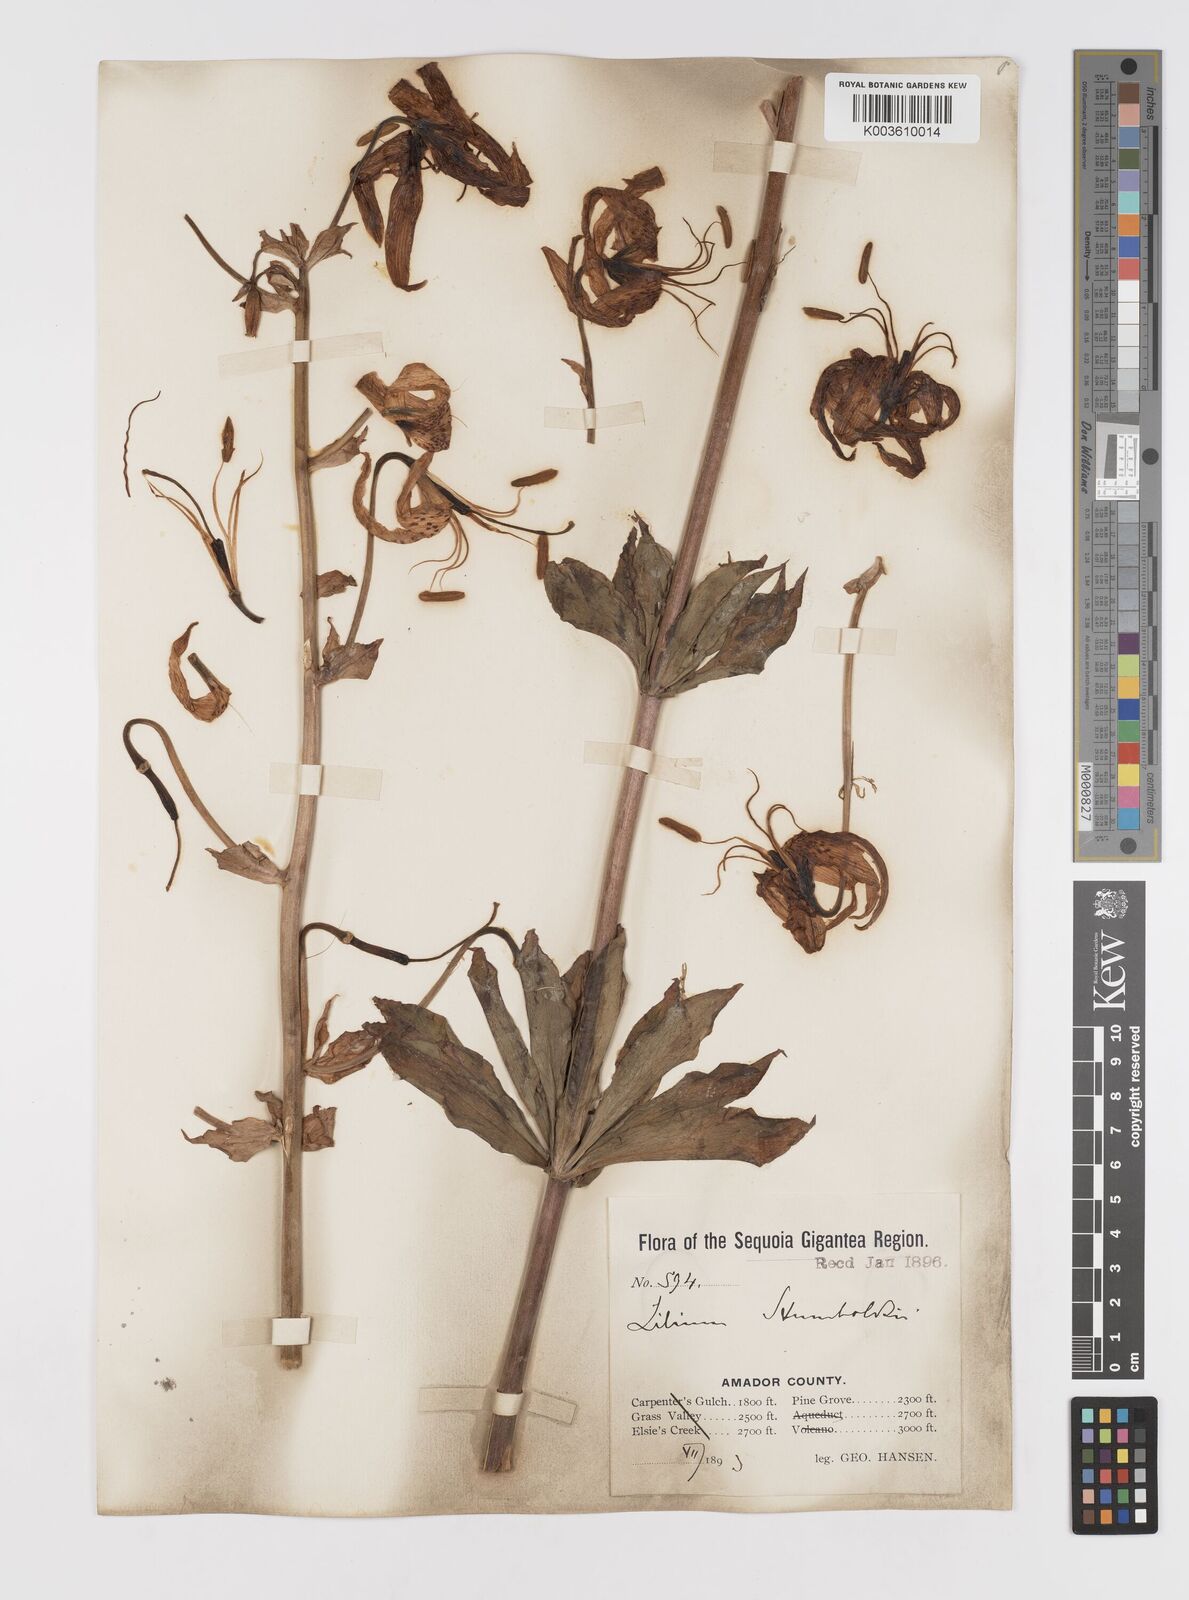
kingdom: Plantae
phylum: Tracheophyta
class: Liliopsida
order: Liliales
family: Liliaceae
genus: Lilium
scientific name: Lilium humboldtii
